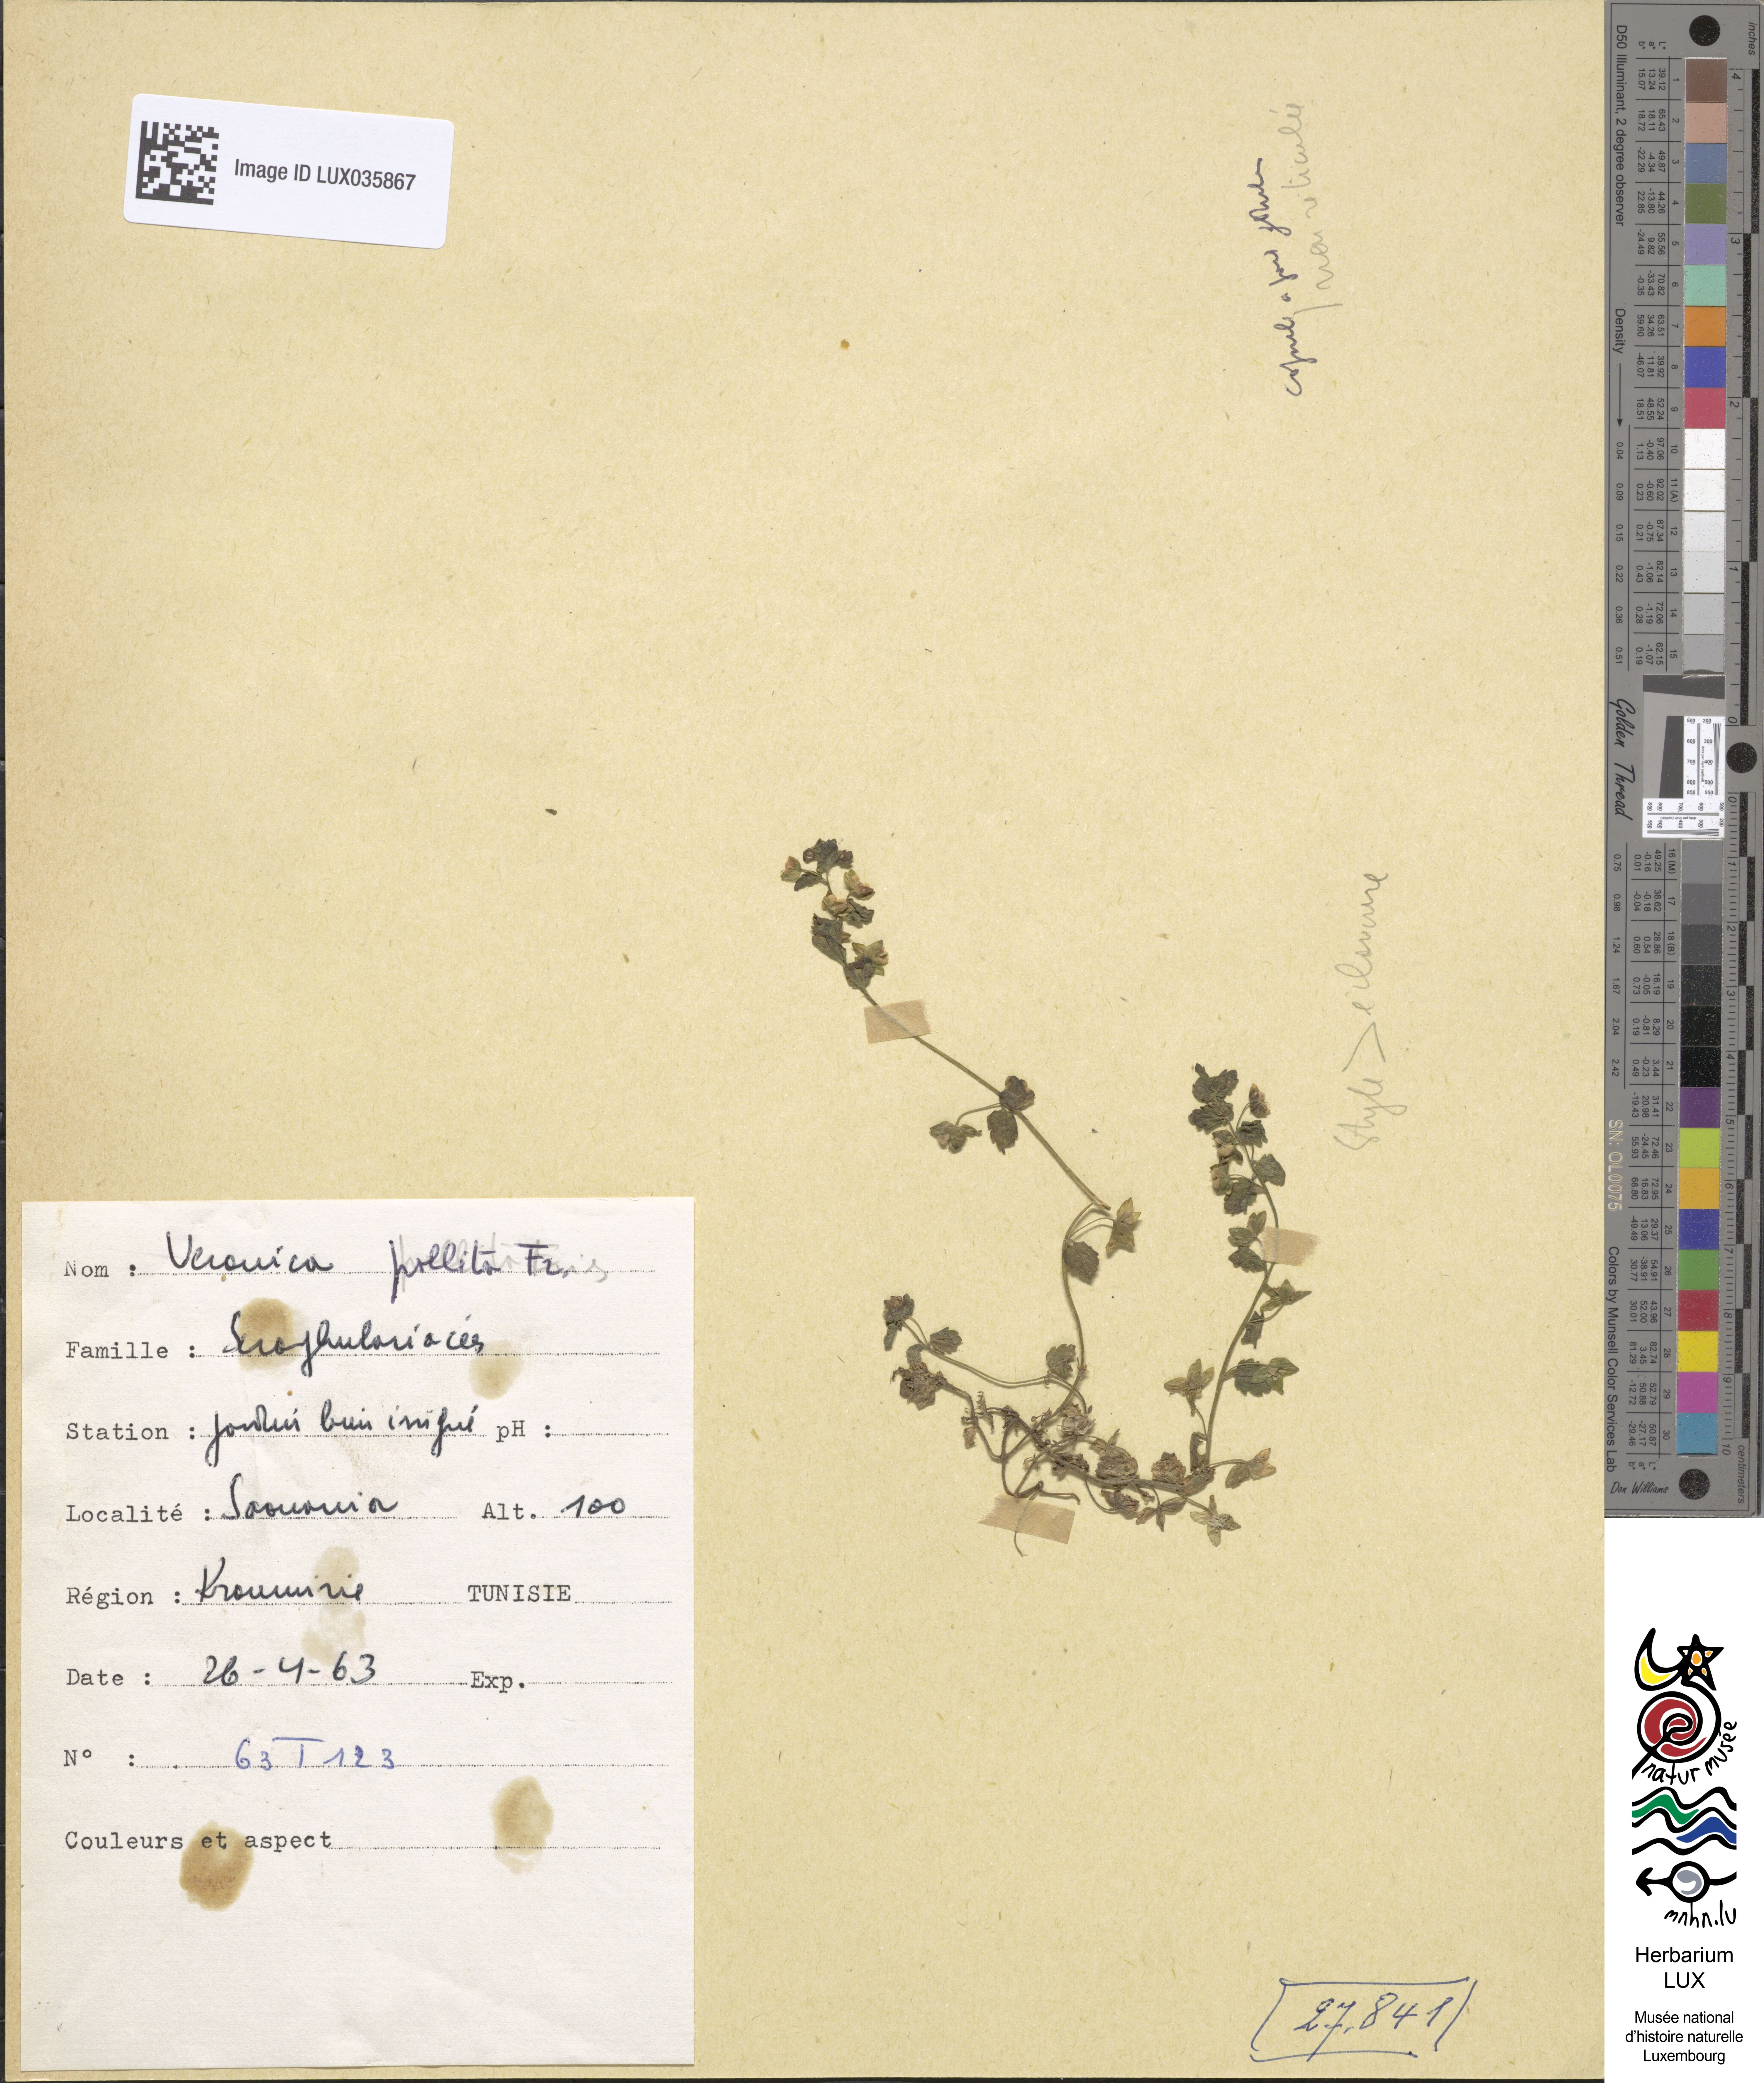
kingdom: Plantae
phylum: Tracheophyta
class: Magnoliopsida
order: Lamiales
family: Plantaginaceae
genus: Veronica
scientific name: Veronica polita
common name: Grey field-speedwell
